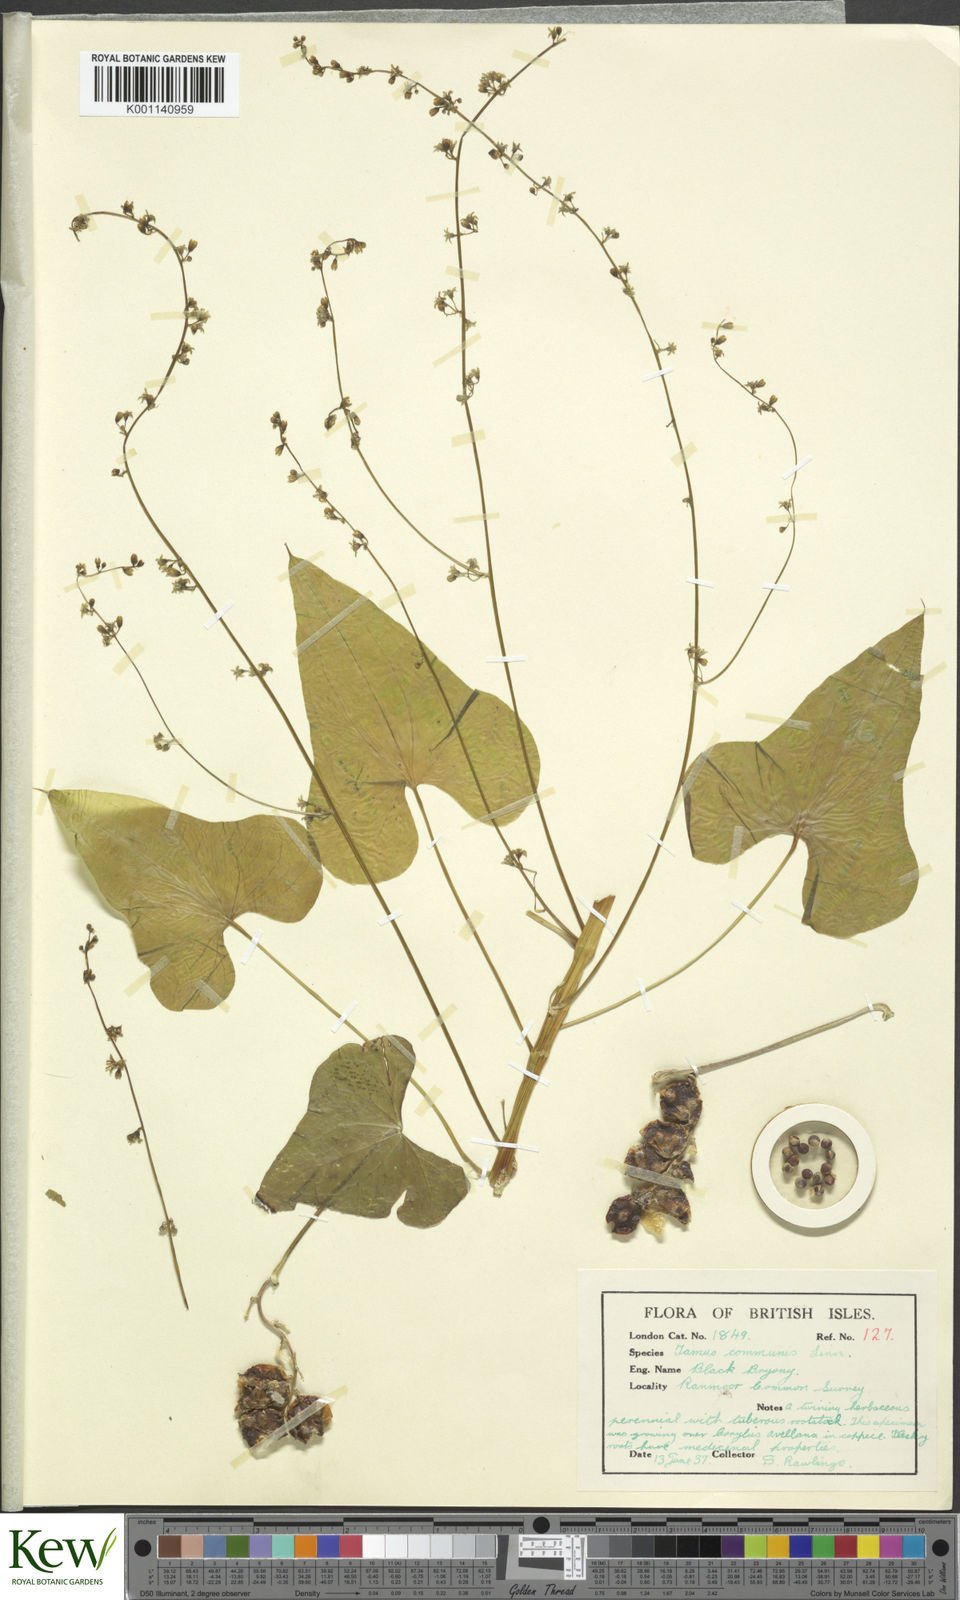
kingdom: Plantae
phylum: Tracheophyta
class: Liliopsida
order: Dioscoreales
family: Dioscoreaceae
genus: Dioscorea
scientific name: Dioscorea communis
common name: Black-bindweed
